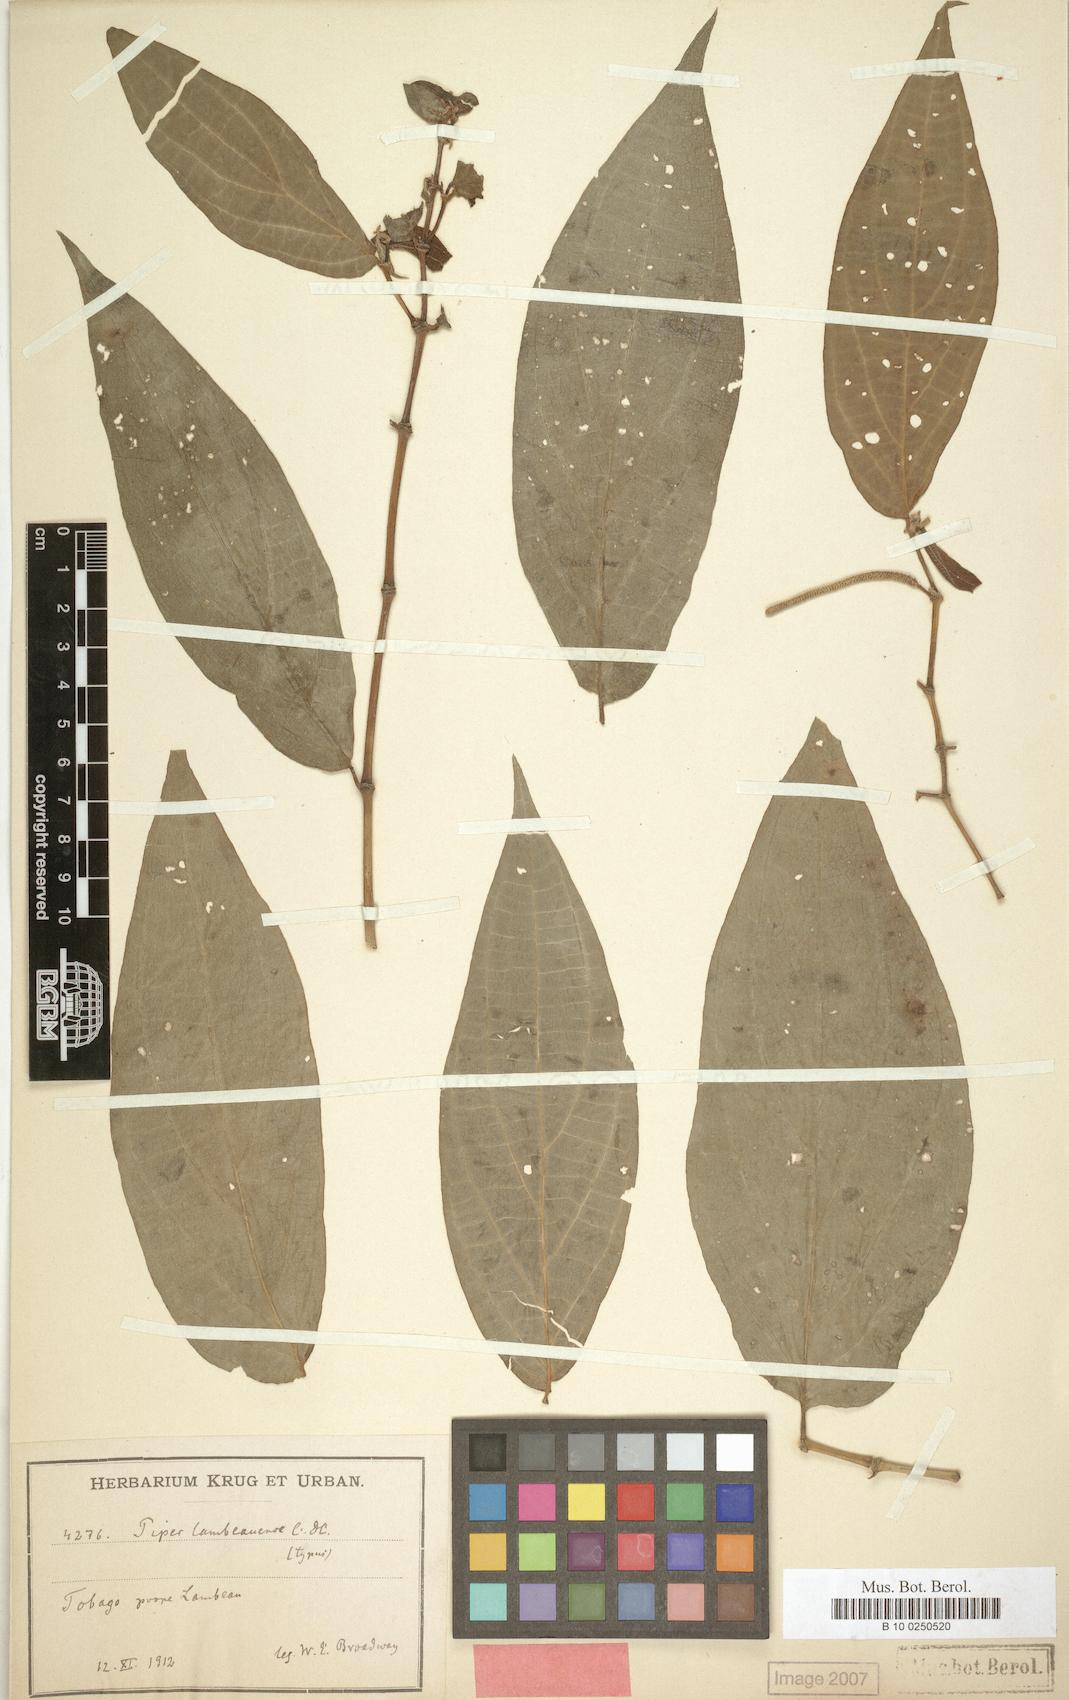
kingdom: Plantae
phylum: Tracheophyta
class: Magnoliopsida
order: Piperales
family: Piperaceae
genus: Piper
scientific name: Piper dilatatum
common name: Higuillo
